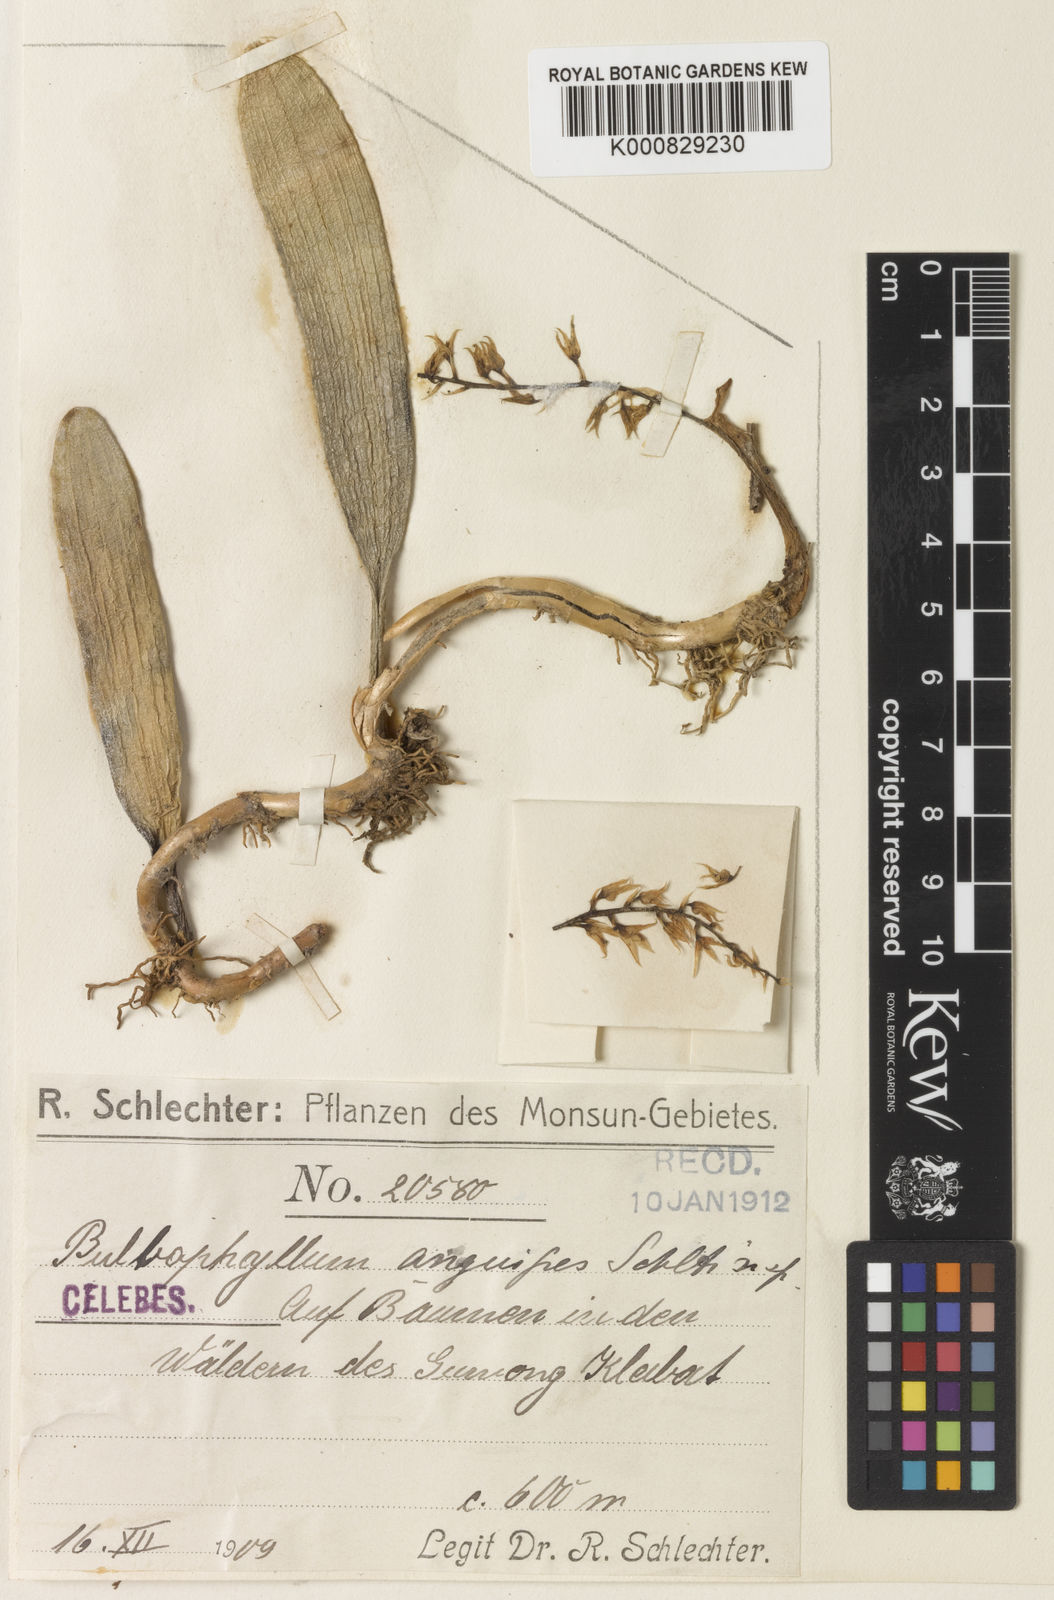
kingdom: Plantae
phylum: Tracheophyta
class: Liliopsida
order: Asparagales
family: Orchidaceae
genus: Bulbophyllum
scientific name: Bulbophyllum apodum
